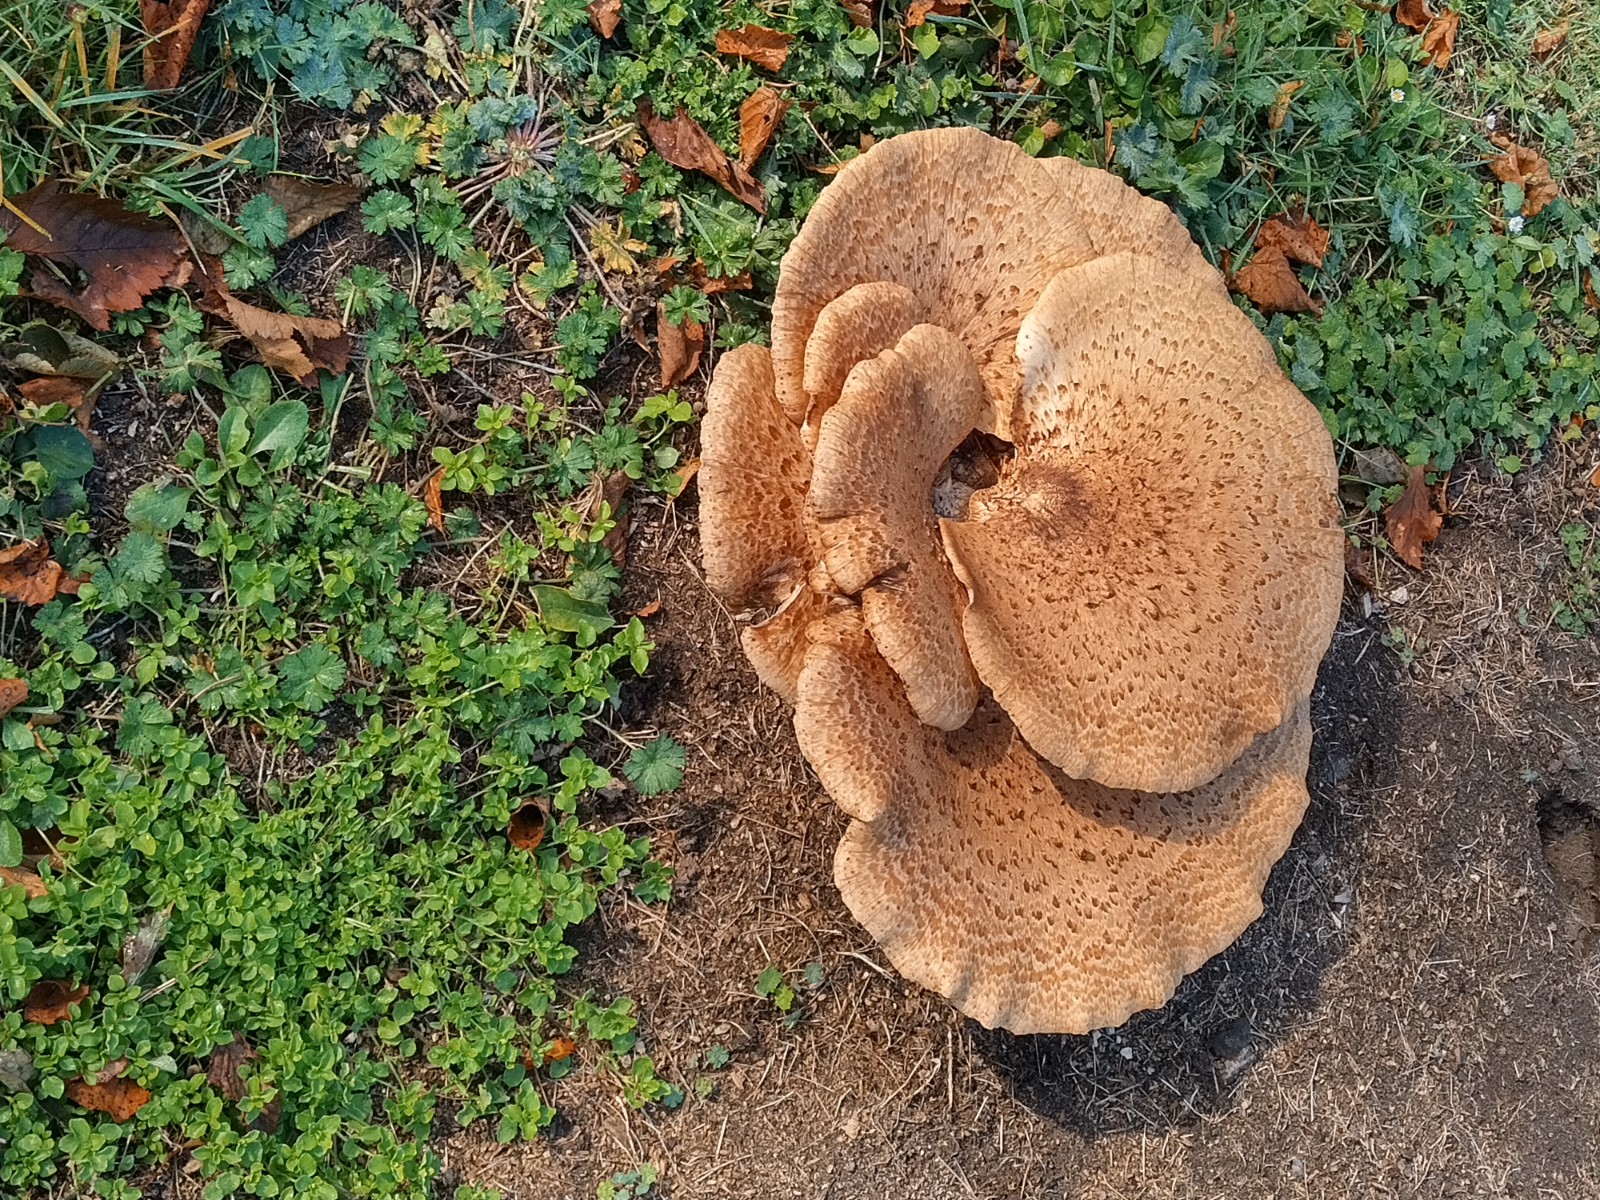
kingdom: Fungi
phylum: Basidiomycota
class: Agaricomycetes
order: Polyporales
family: Polyporaceae
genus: Cerioporus
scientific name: Cerioporus squamosus
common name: skællet stilkporesvamp
